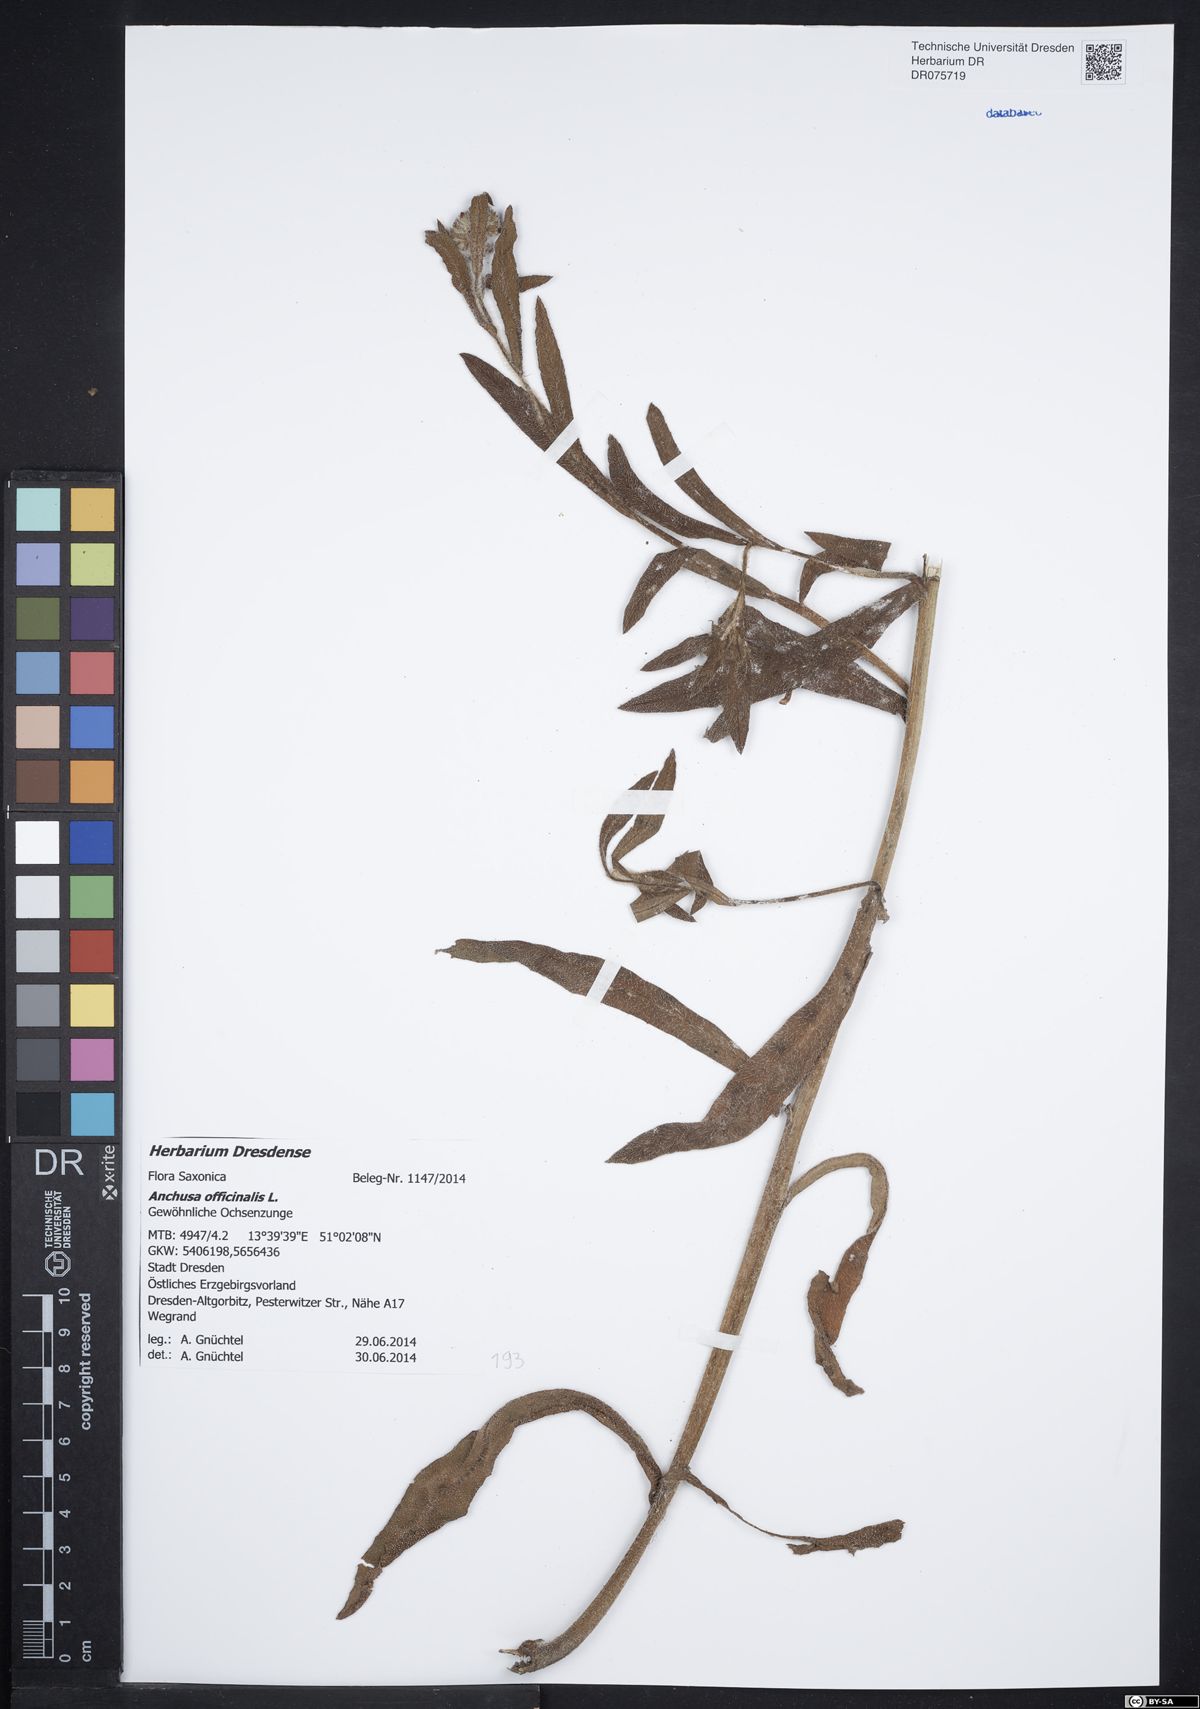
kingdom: Plantae
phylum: Tracheophyta
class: Magnoliopsida
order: Boraginales
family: Boraginaceae
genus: Anchusa
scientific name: Anchusa officinalis
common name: Alkanet
